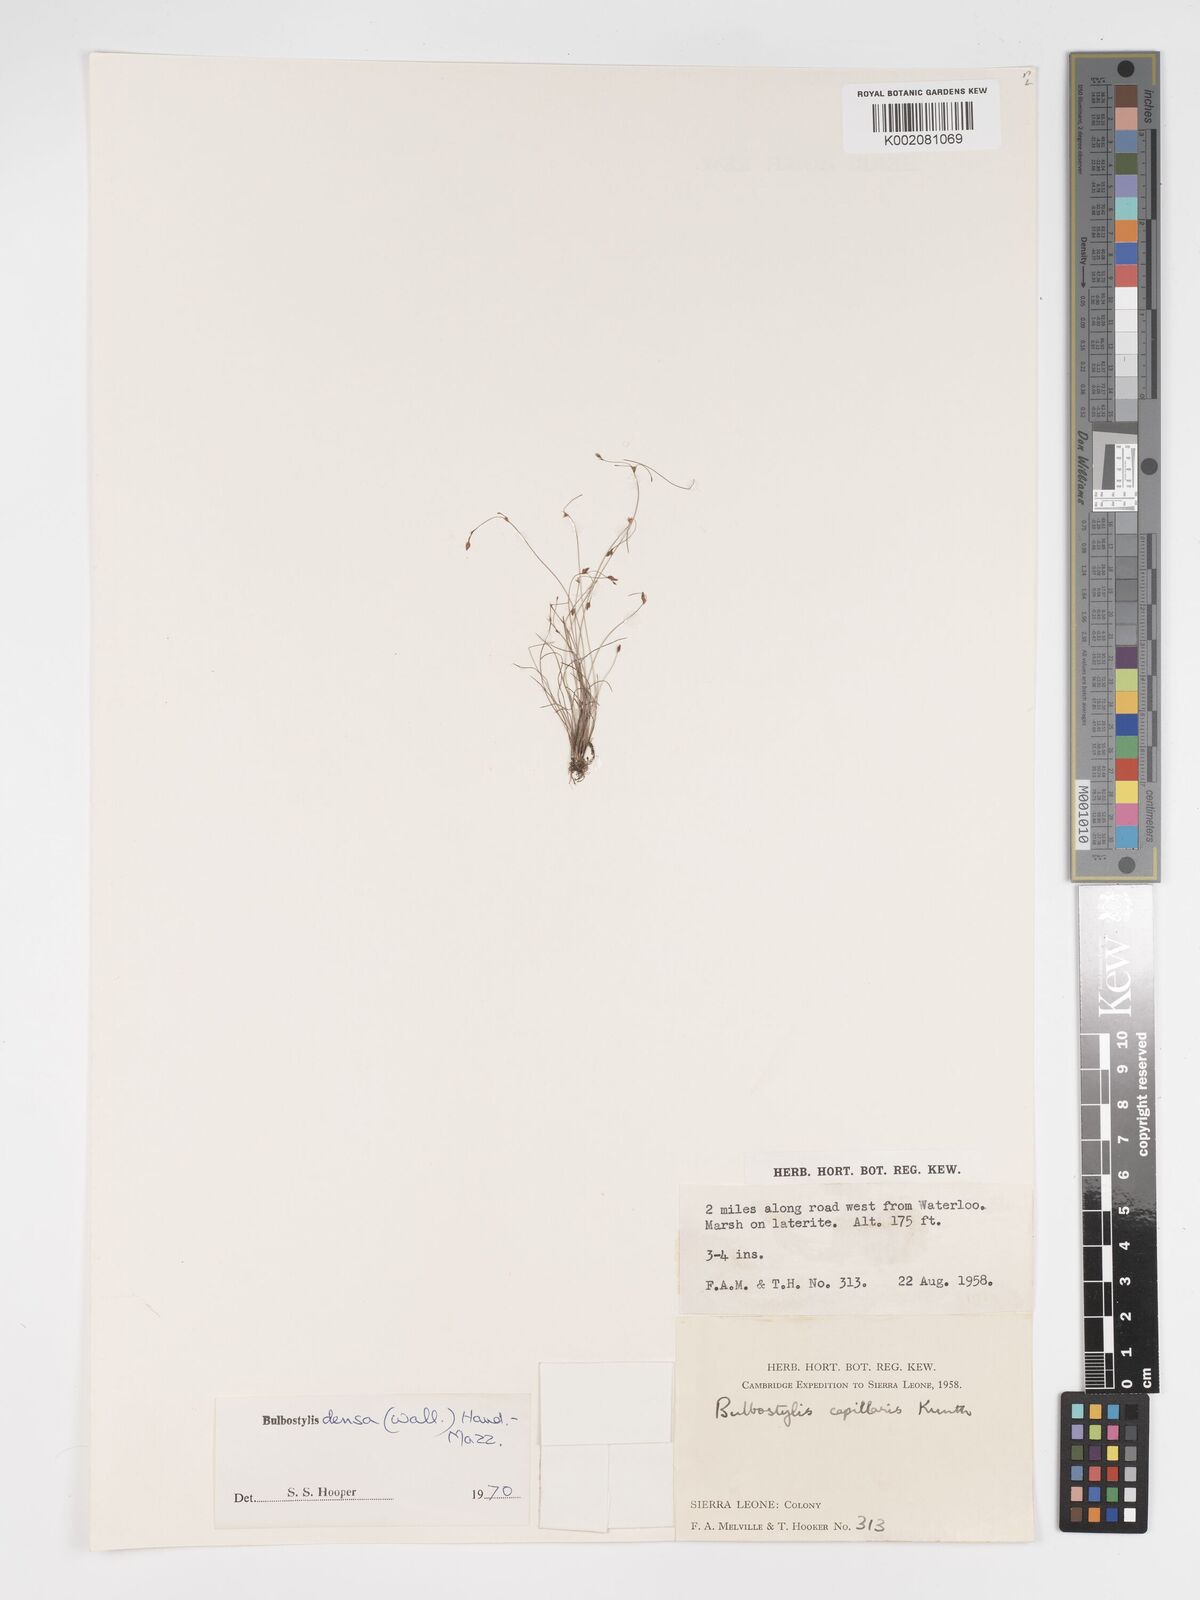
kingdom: Plantae
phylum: Tracheophyta
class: Liliopsida
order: Poales
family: Cyperaceae
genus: Bulbostylis
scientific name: Bulbostylis densa
